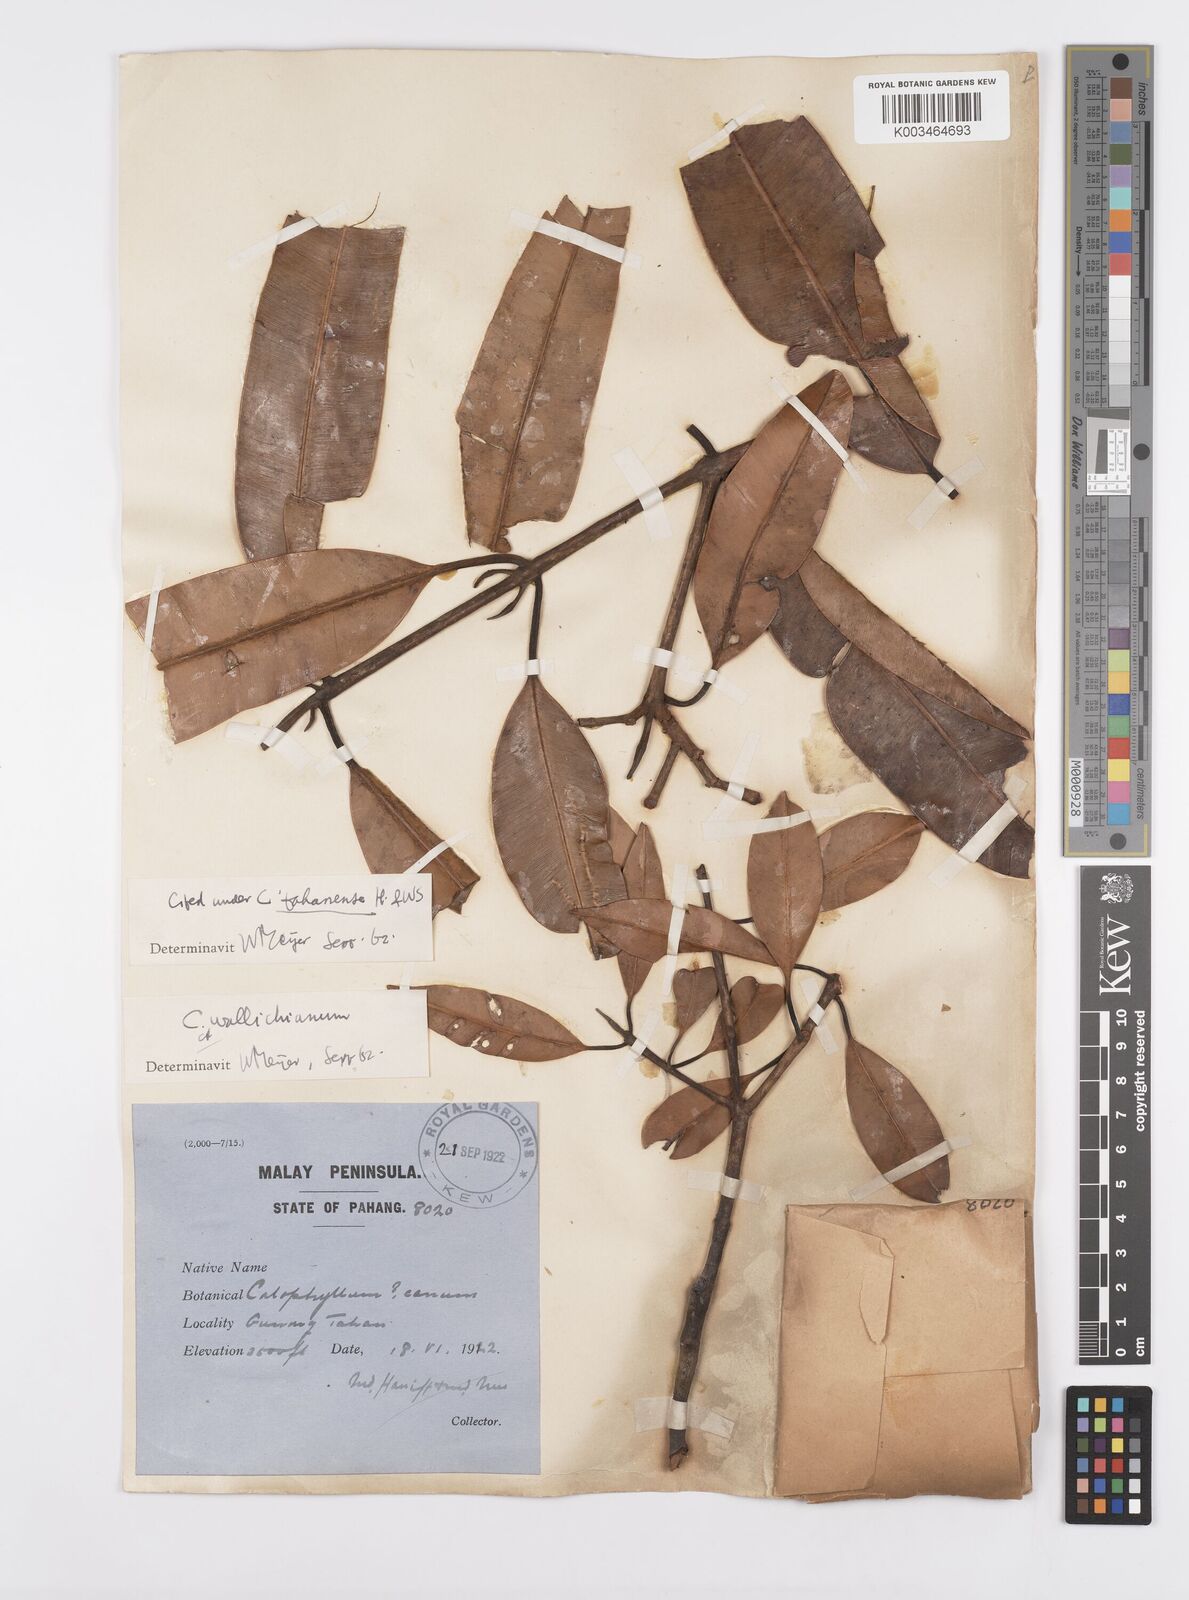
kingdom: Plantae
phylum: Tracheophyta
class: Magnoliopsida
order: Malpighiales
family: Calophyllaceae
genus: Calophyllum
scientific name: Calophyllum wallichiana
